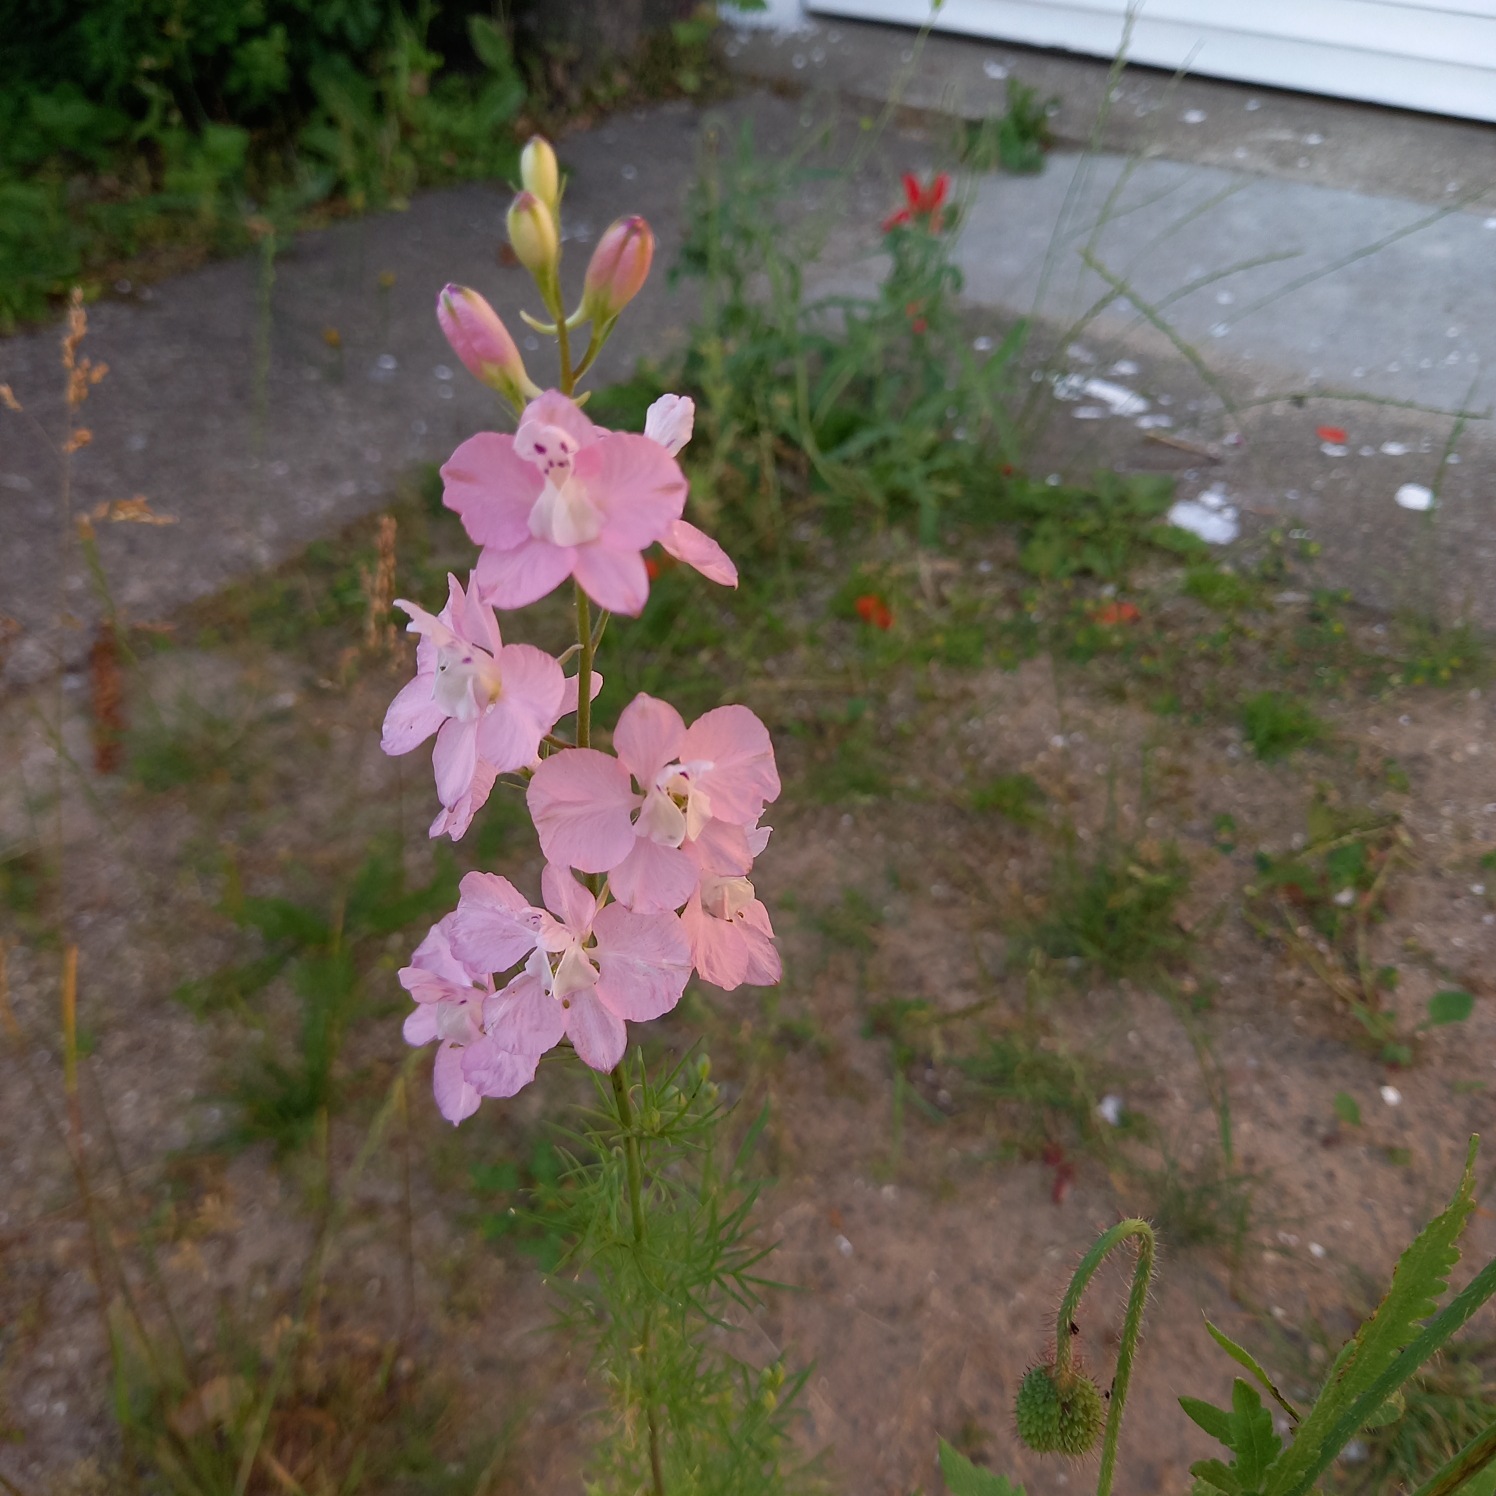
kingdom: Plantae
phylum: Tracheophyta
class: Magnoliopsida
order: Ranunculales
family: Ranunculaceae
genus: Delphinium
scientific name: Delphinium ajacis
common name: Have-ridderspore
